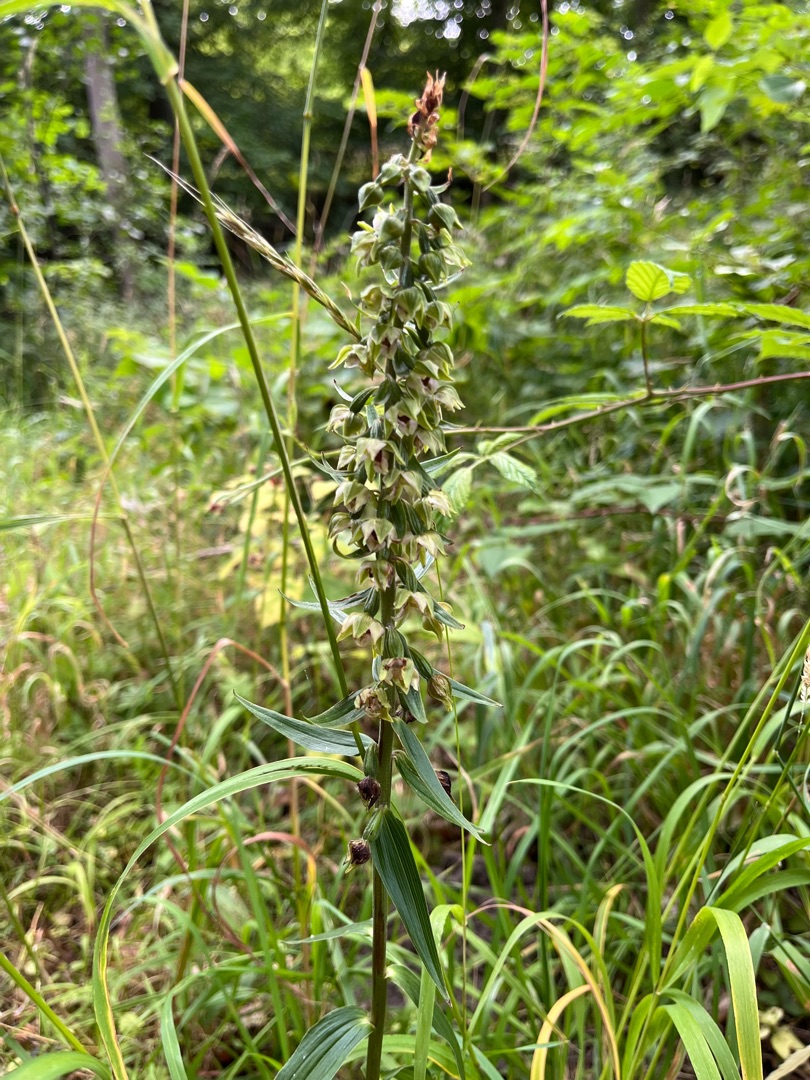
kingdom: Plantae
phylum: Tracheophyta
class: Liliopsida
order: Asparagales
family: Orchidaceae
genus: Epipactis
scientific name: Epipactis helleborine
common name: Skov-hullæbe
